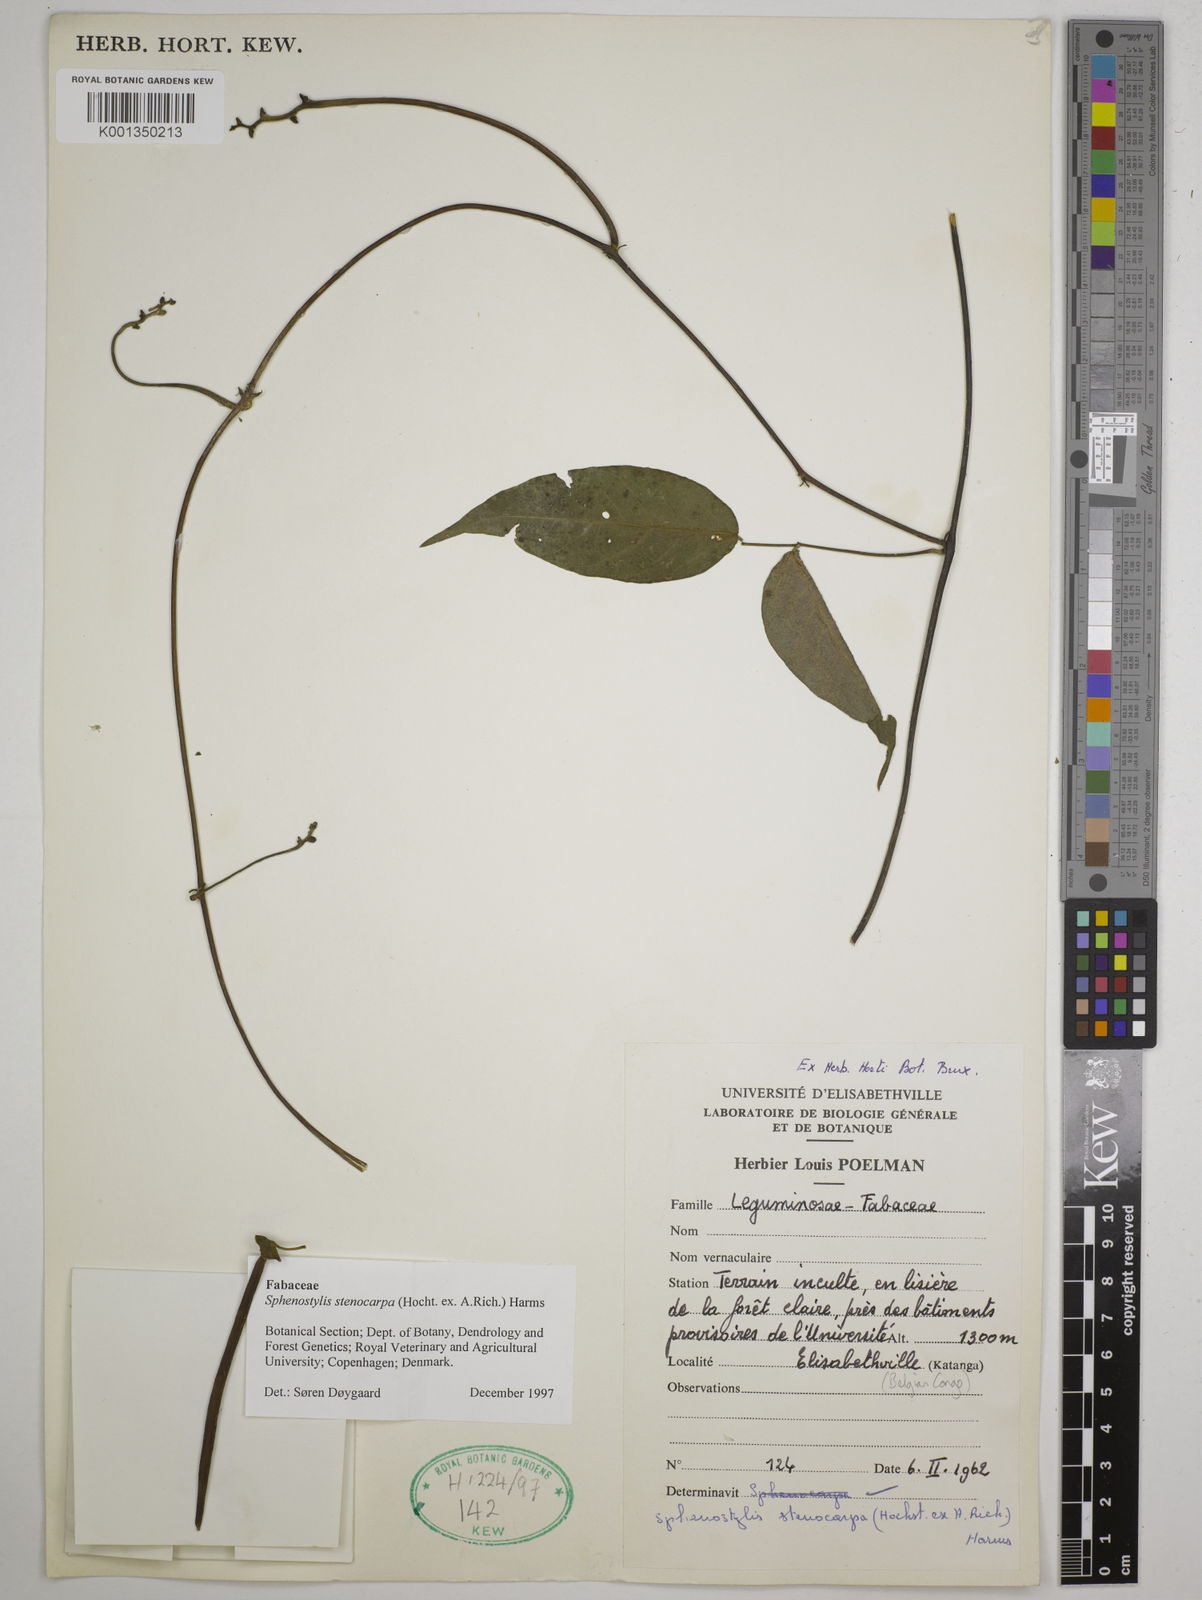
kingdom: Plantae
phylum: Tracheophyta
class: Magnoliopsida
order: Fabales
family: Fabaceae
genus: Sphenostylis
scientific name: Sphenostylis stenocarpa
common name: Yam-pea
